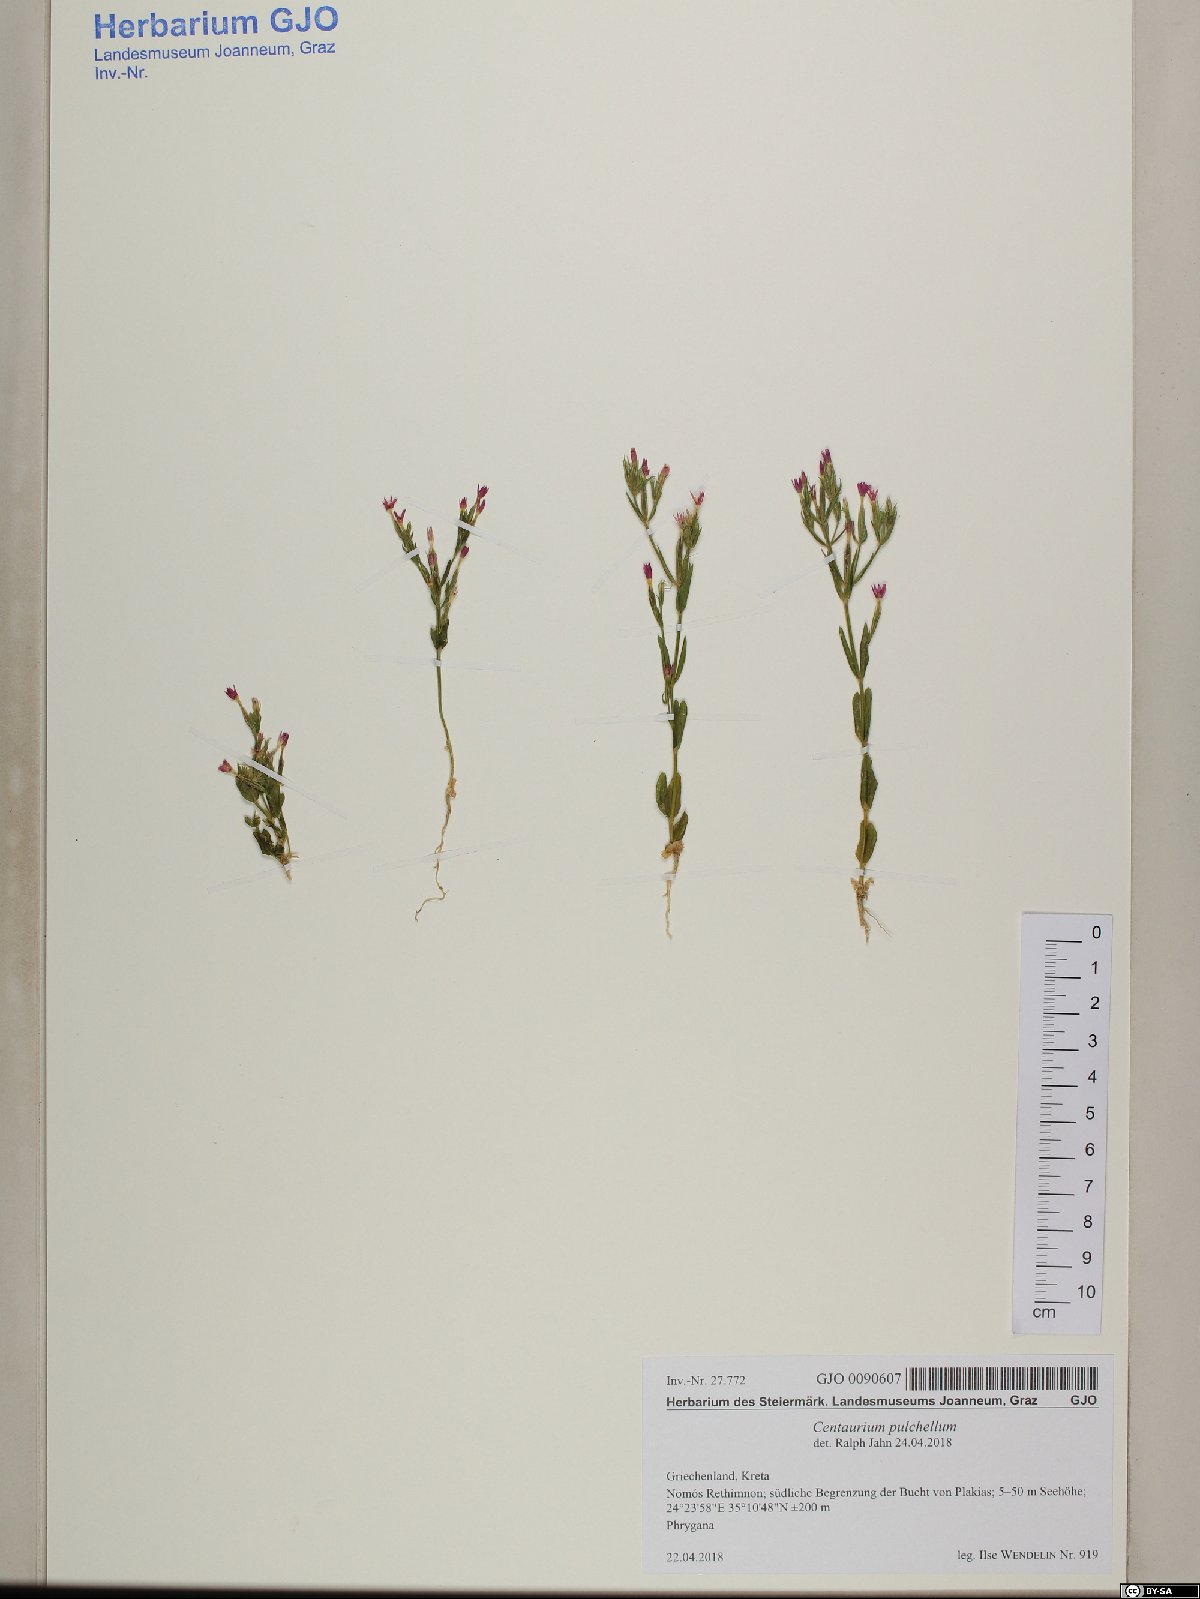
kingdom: Plantae
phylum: Tracheophyta
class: Magnoliopsida
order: Gentianales
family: Gentianaceae
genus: Centaurium
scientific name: Centaurium pulchellum
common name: Lesser centaury
